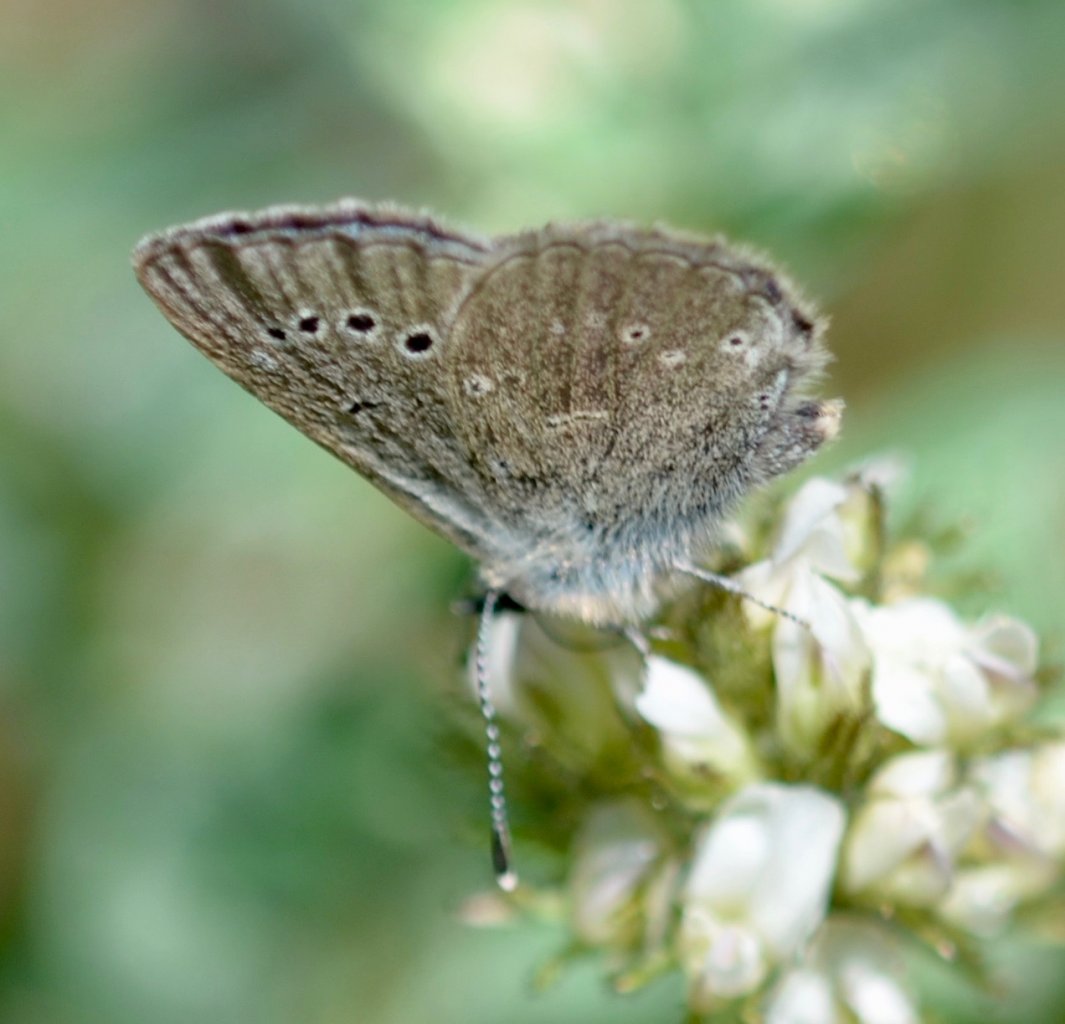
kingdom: Animalia
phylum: Arthropoda
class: Insecta
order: Lepidoptera
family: Lycaenidae
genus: Glaucopsyche
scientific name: Glaucopsyche lygdamus
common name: Silvery Blue
